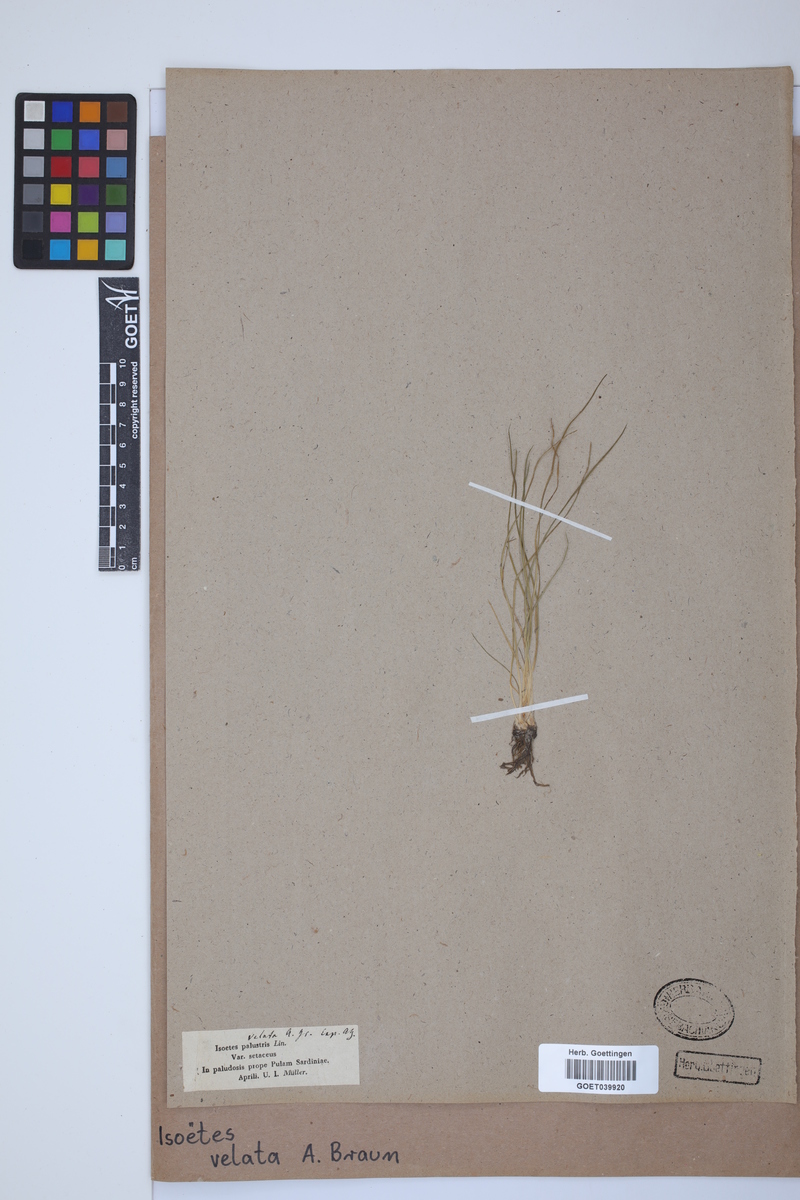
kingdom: Plantae
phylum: Tracheophyta
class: Lycopodiopsida
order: Isoetales
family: Isoetaceae
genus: Isoetes
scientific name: Isoetes longissima
